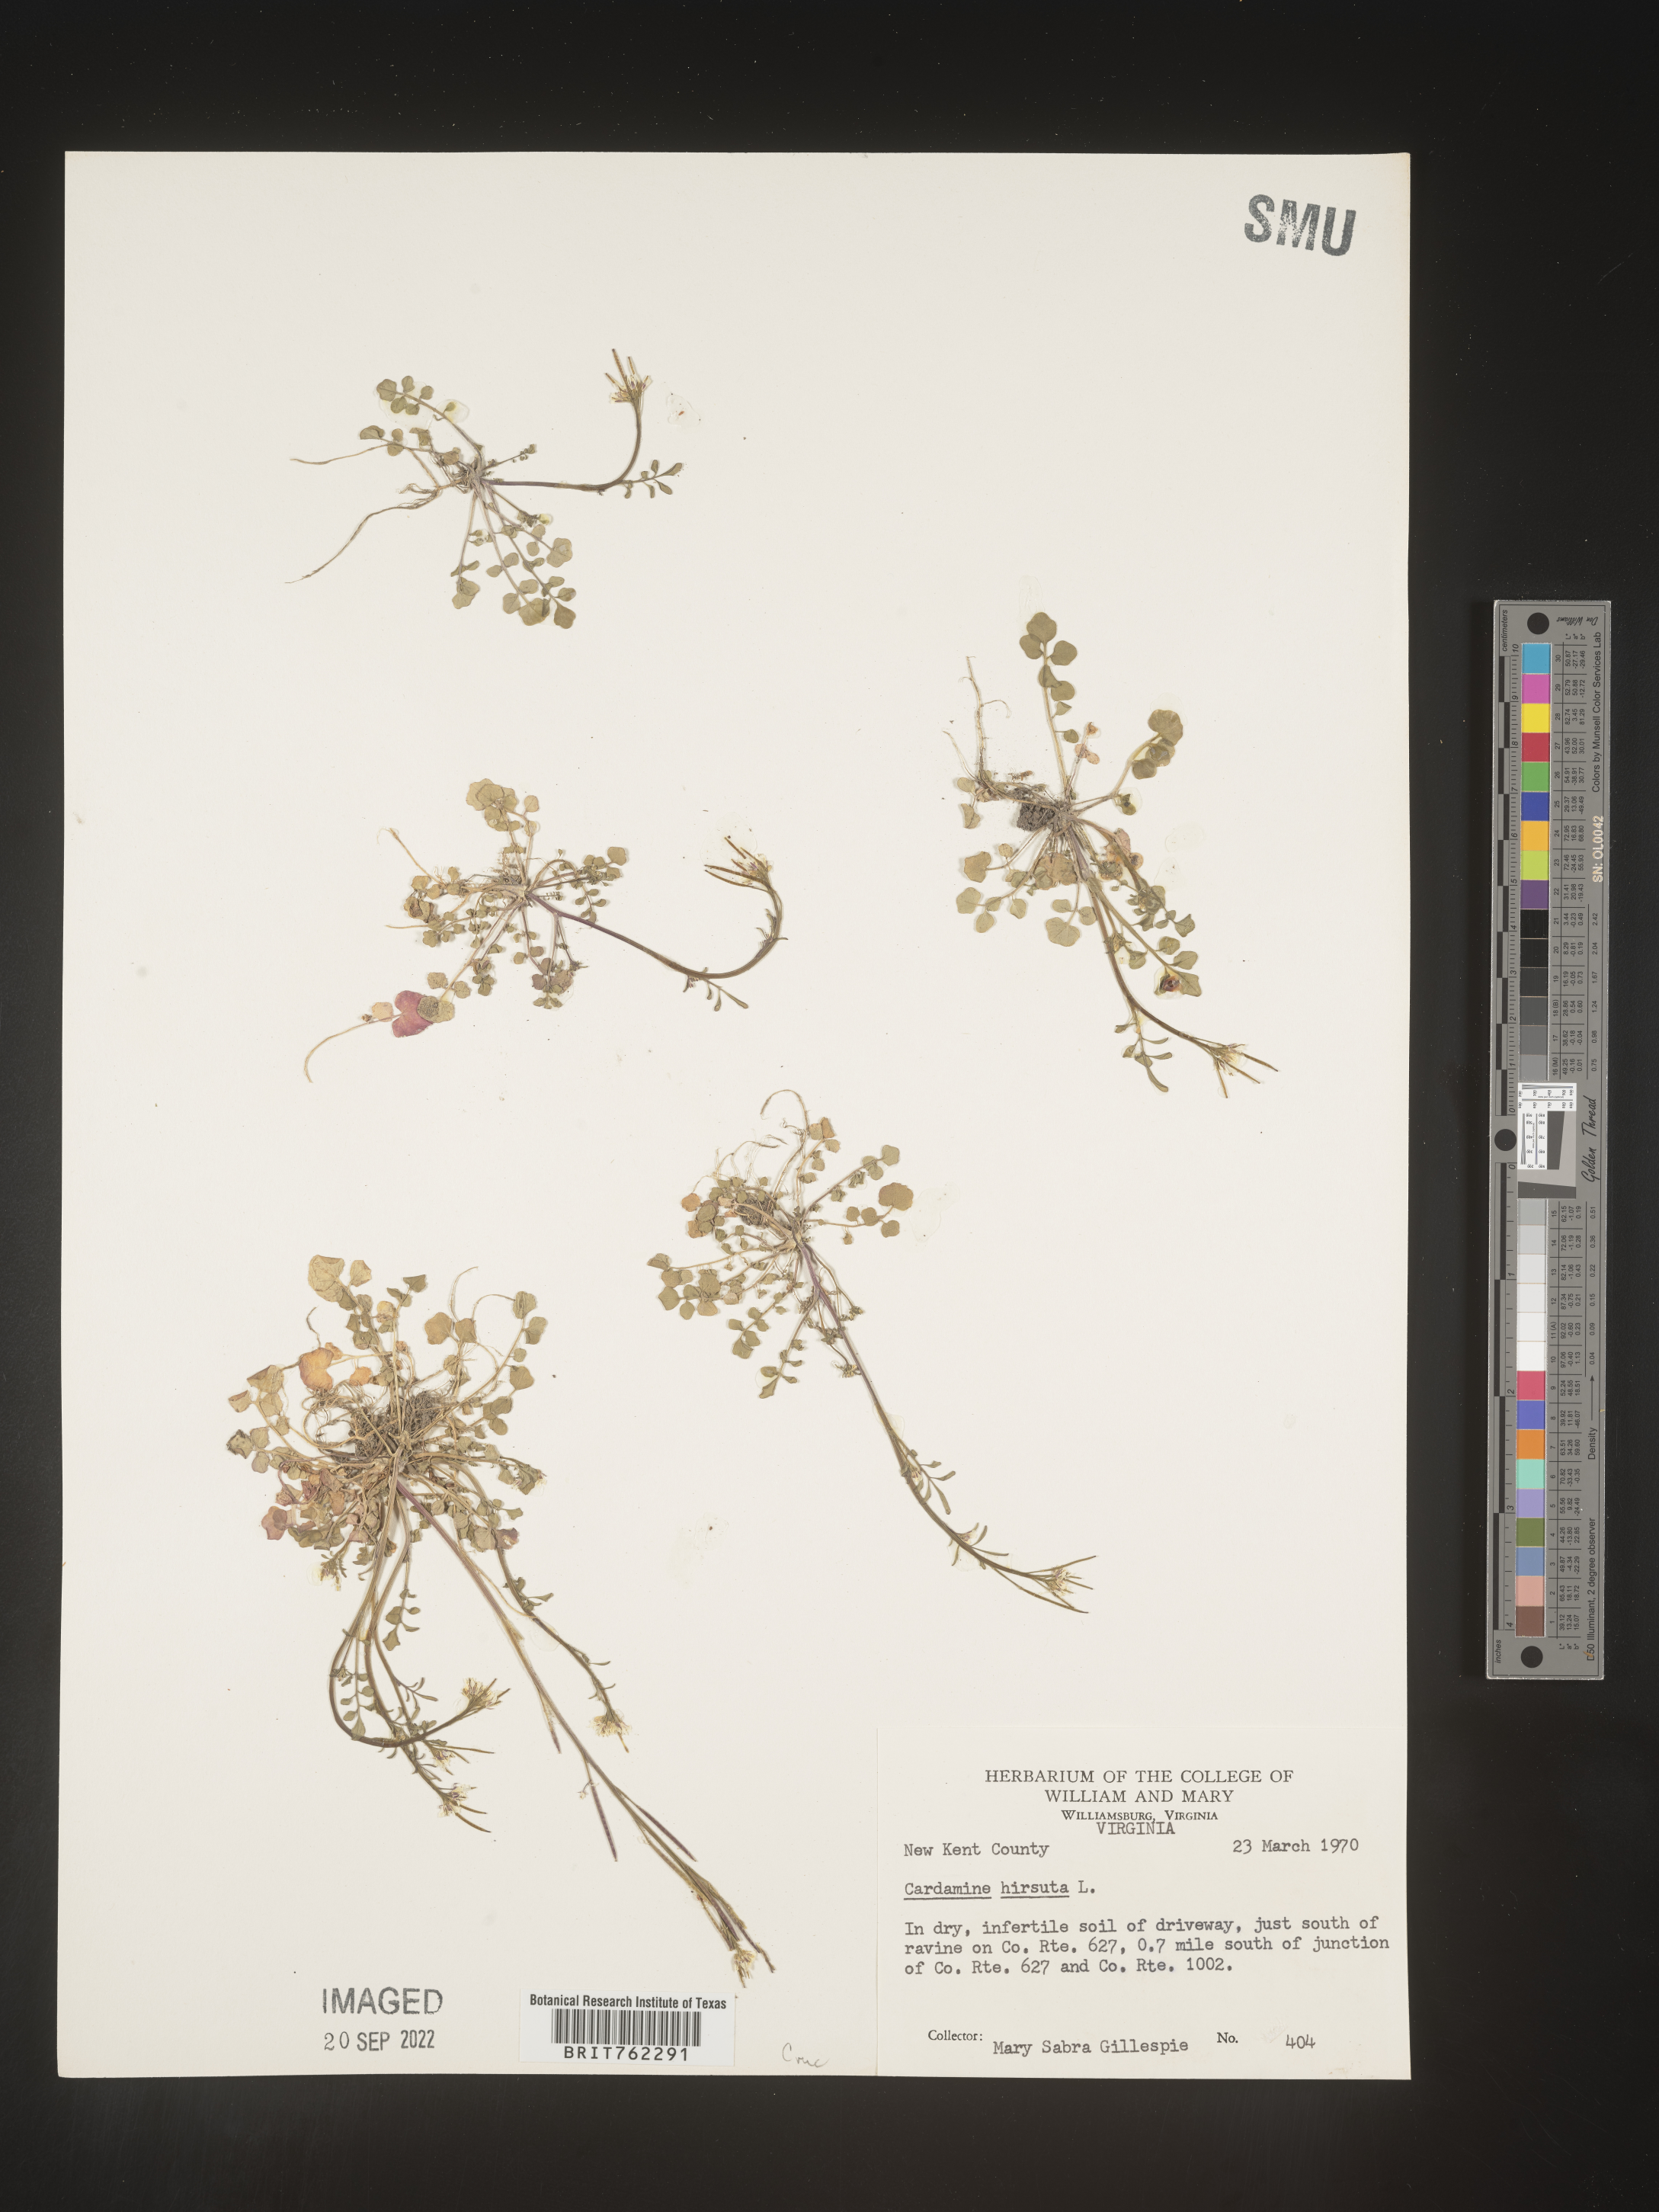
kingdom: Plantae
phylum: Tracheophyta
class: Magnoliopsida
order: Fagales
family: Betulaceae
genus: Carpinus
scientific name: Carpinus caroliniana
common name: American hornbeam
